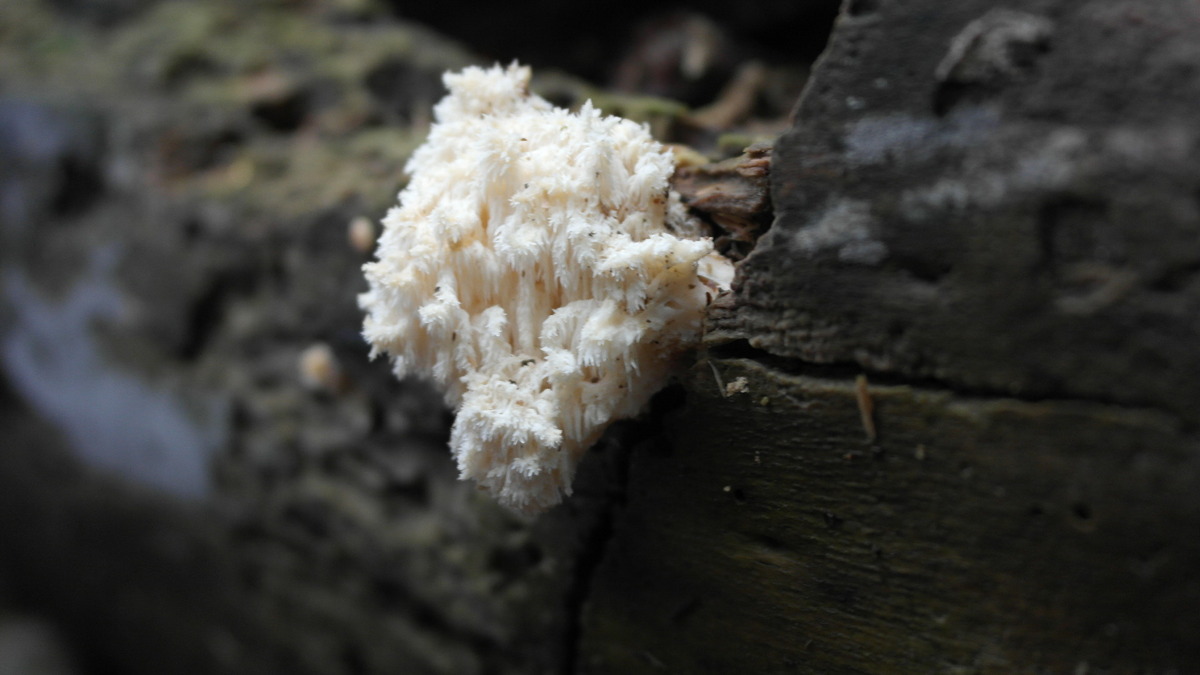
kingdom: Fungi
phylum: Basidiomycota
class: Agaricomycetes
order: Russulales
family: Hericiaceae
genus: Hericium
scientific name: Hericium coralloides
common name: koralpigsvamp
